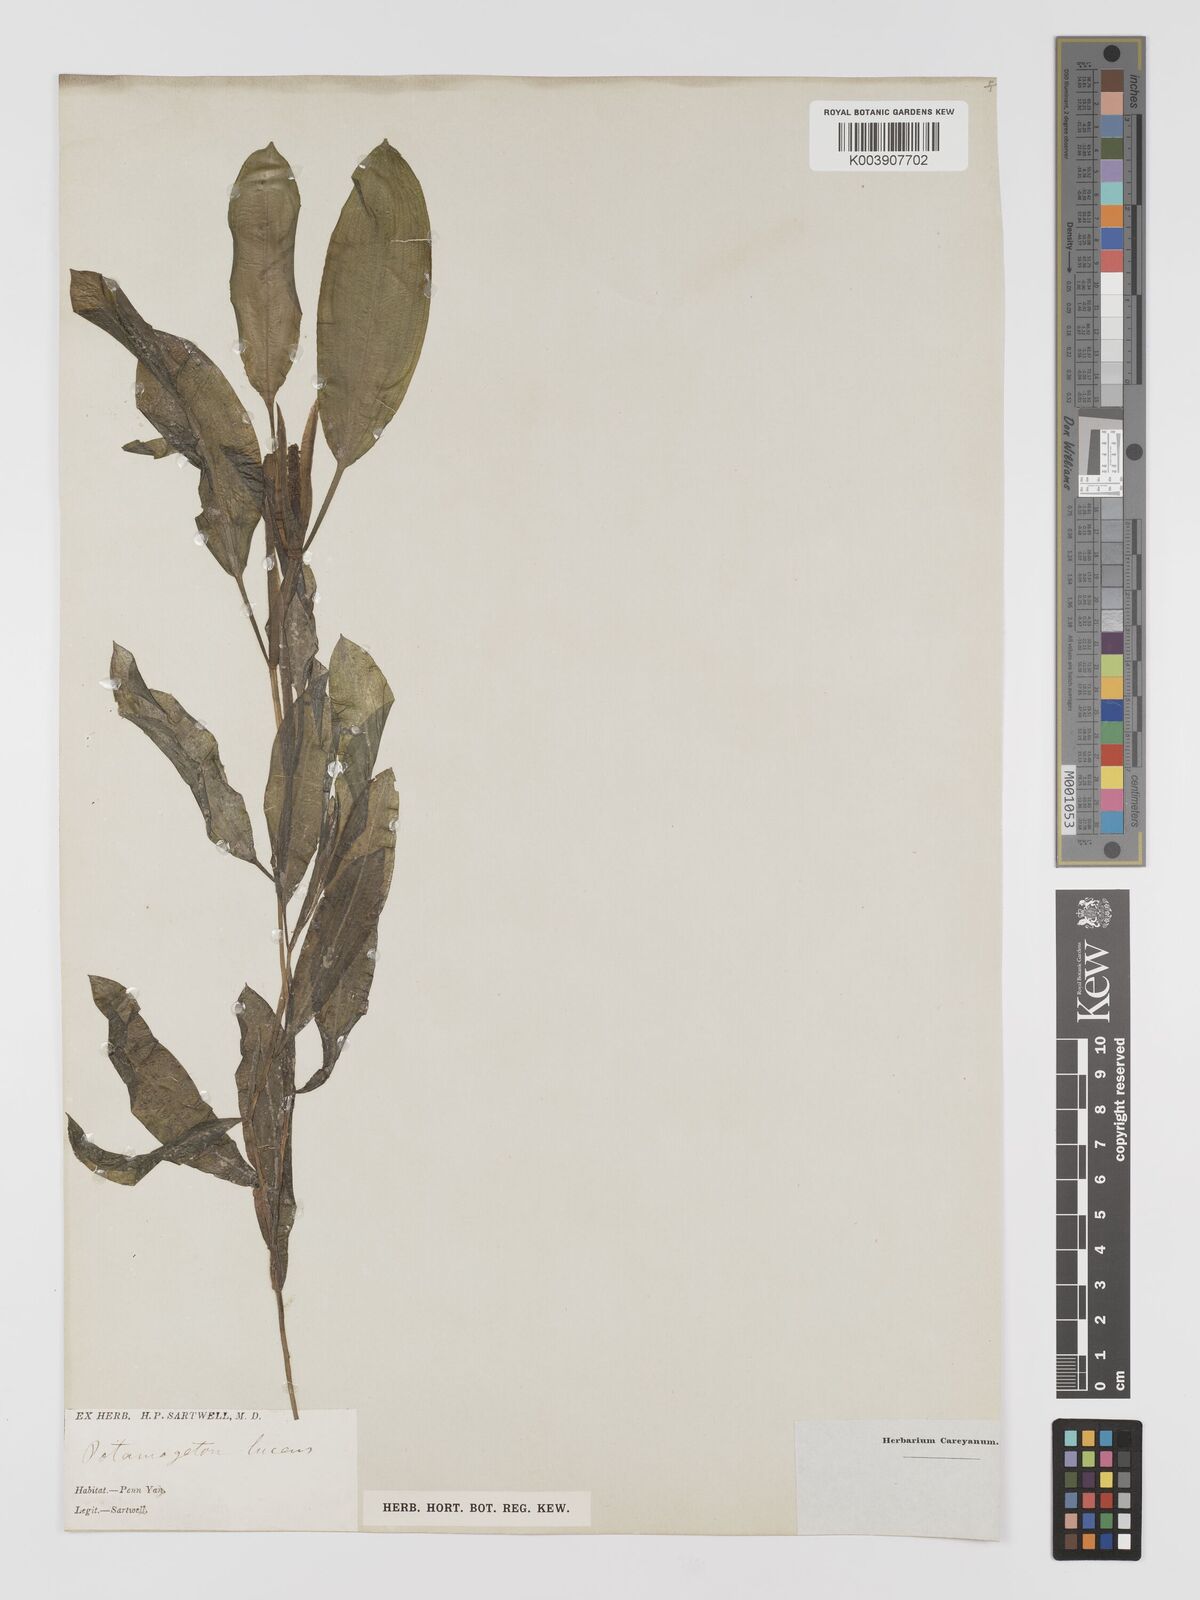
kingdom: Plantae
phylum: Tracheophyta
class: Liliopsida
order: Alismatales
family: Potamogetonaceae
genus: Potamogeton
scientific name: Potamogeton illinoensis
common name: Illinois pondweed
